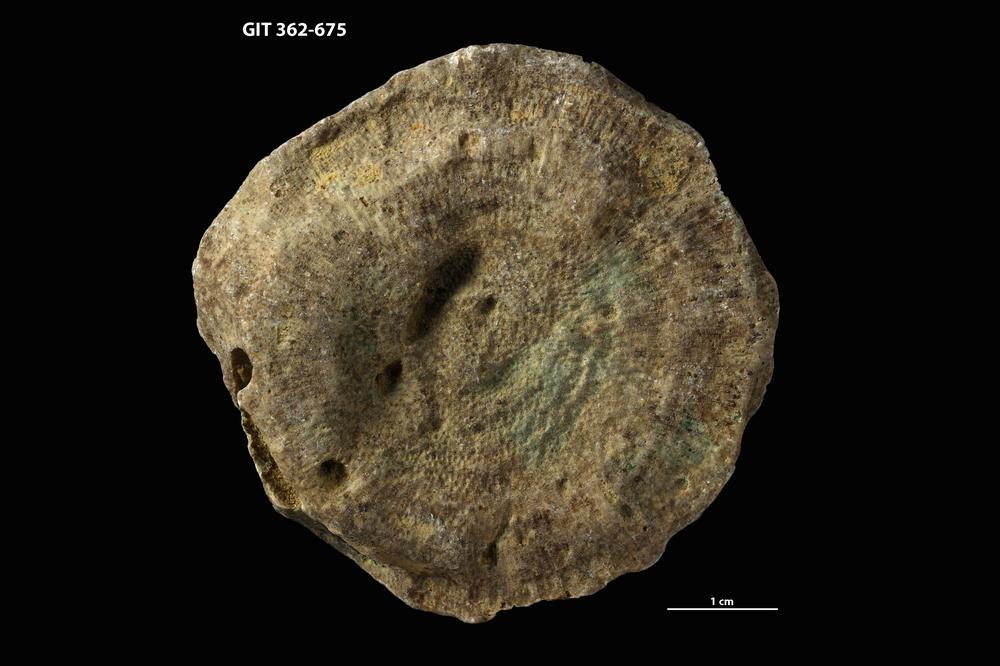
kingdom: Animalia
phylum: Bryozoa
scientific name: Bryozoa
